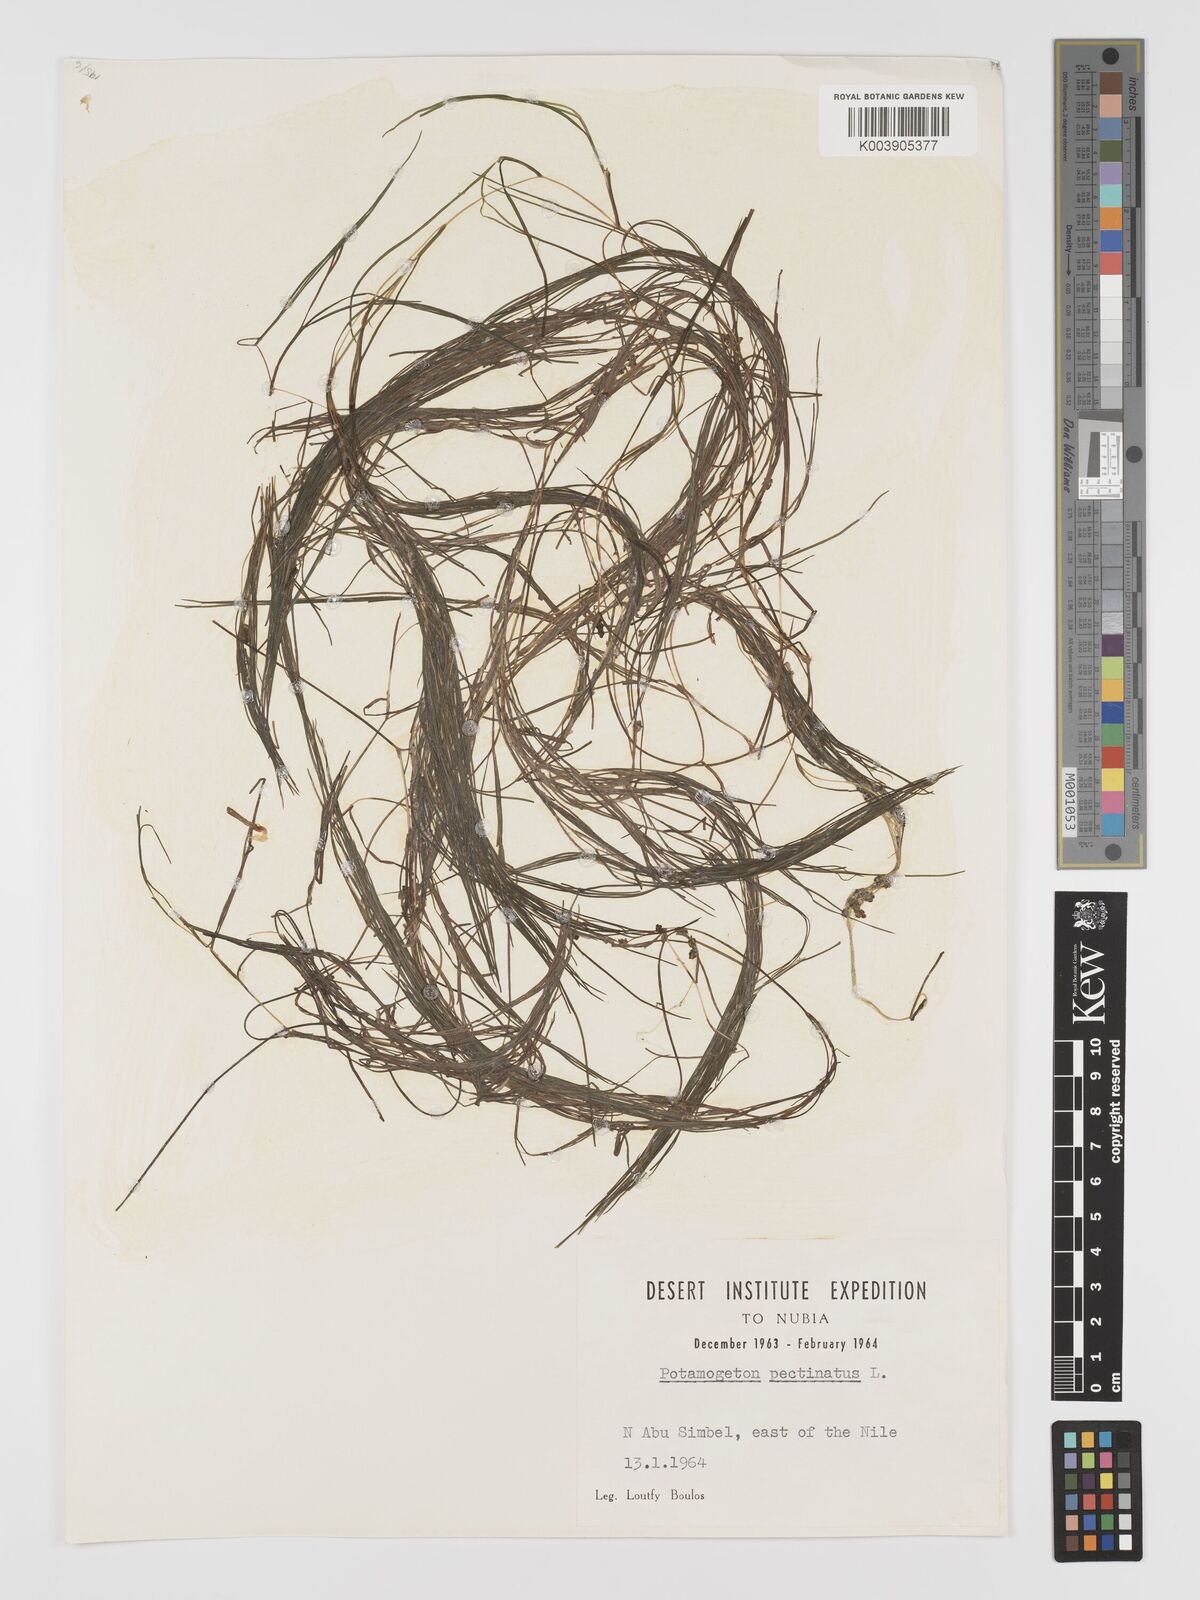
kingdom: Plantae
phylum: Tracheophyta
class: Liliopsida
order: Alismatales
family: Potamogetonaceae
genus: Stuckenia
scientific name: Stuckenia pectinata
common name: Sago pondweed
